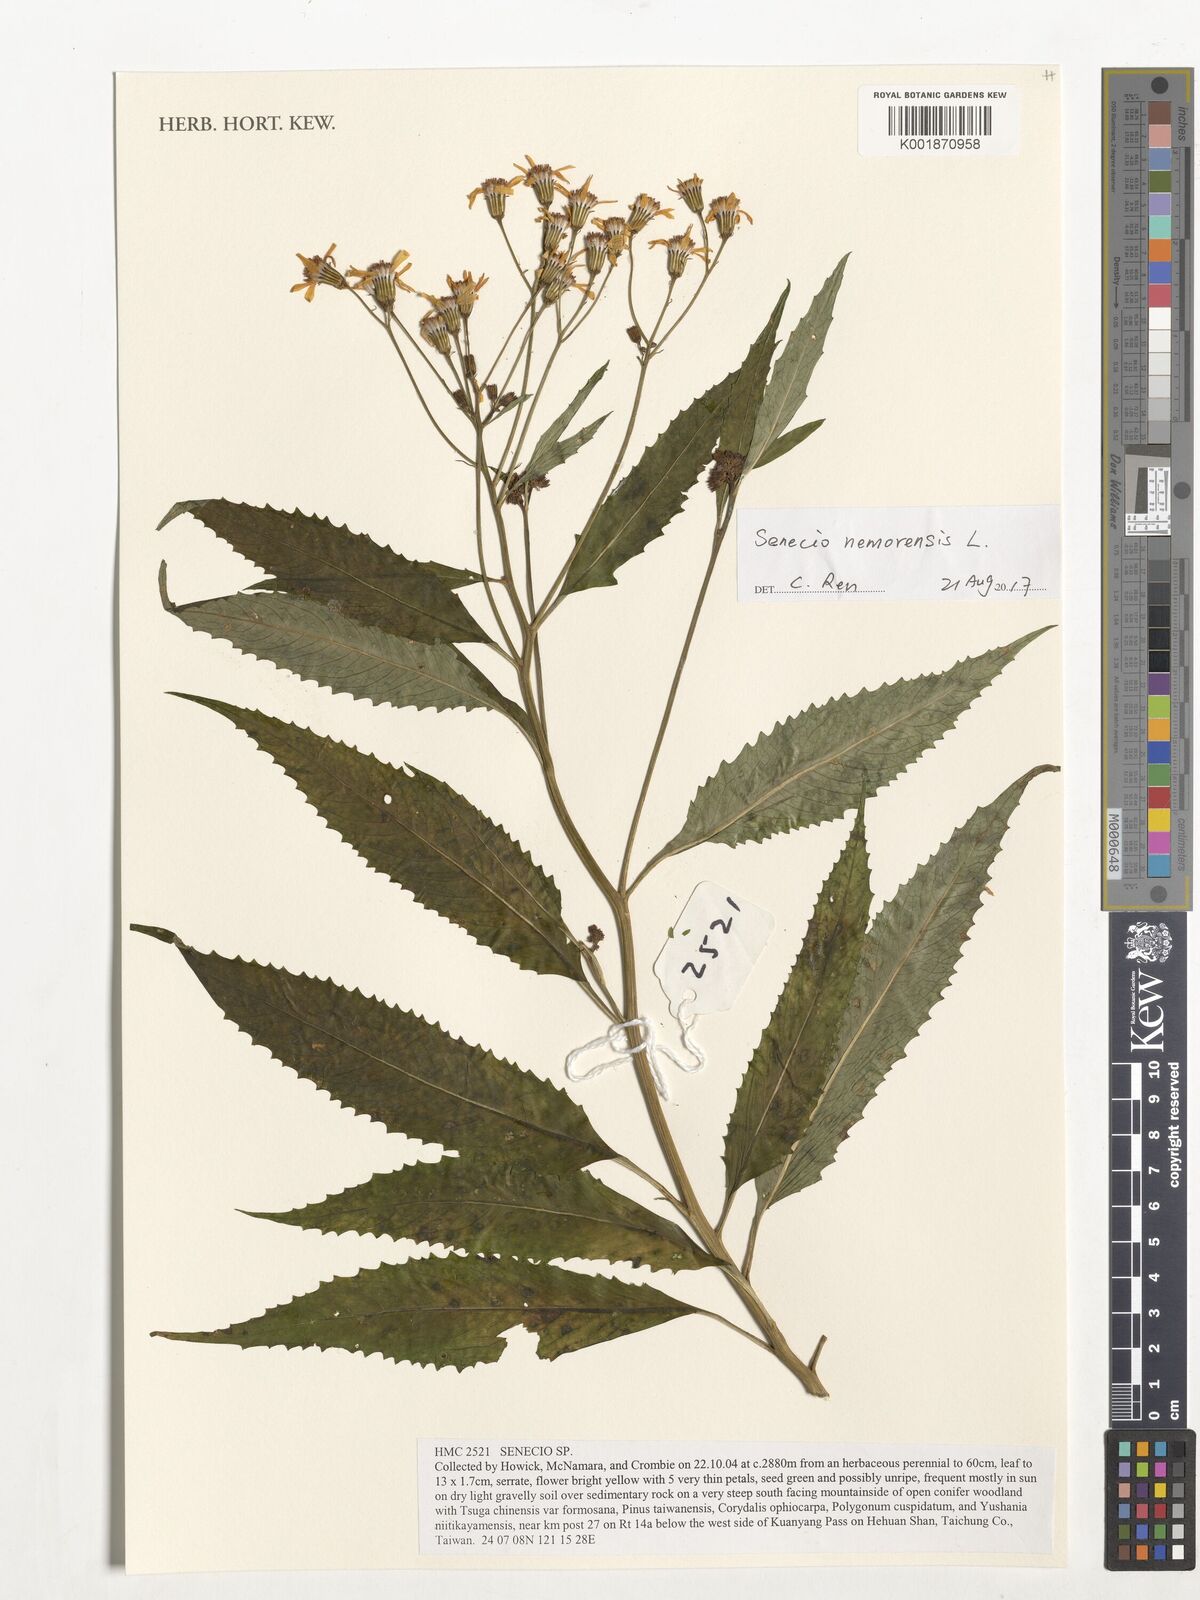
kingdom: Plantae
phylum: Tracheophyta
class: Magnoliopsida
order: Asterales
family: Asteraceae
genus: Senecio
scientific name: Senecio nemorensis
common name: Alpine ragwort
